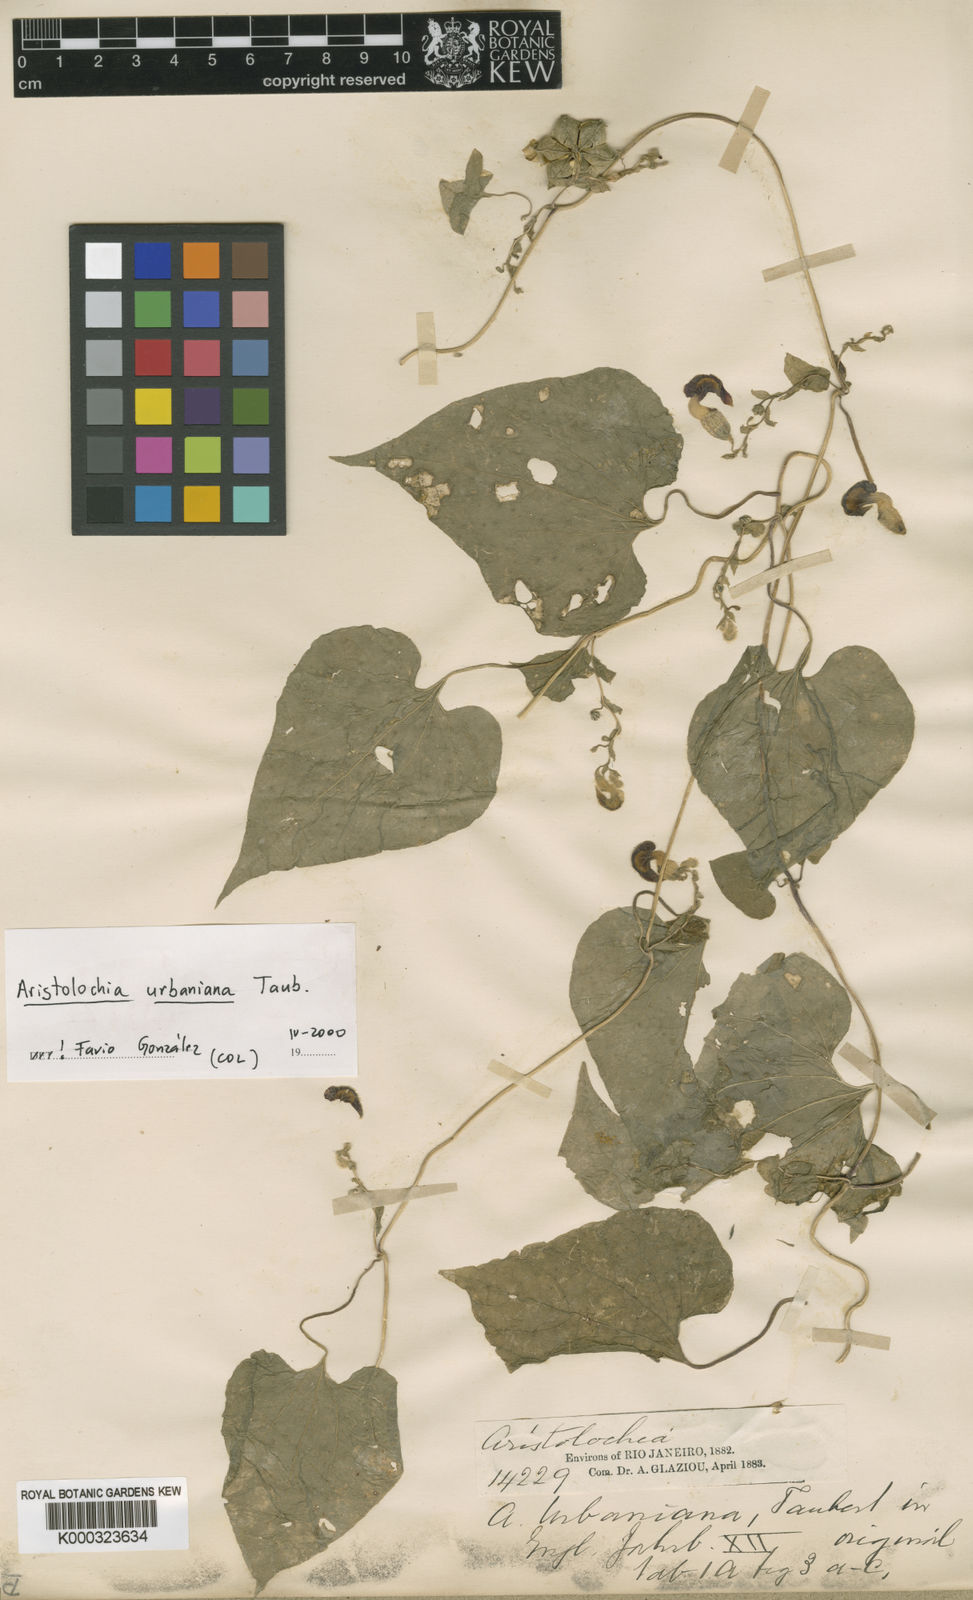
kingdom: Plantae
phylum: Tracheophyta
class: Magnoliopsida
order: Piperales
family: Aristolochiaceae
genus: Aristolochia
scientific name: Aristolochia urbaniana
